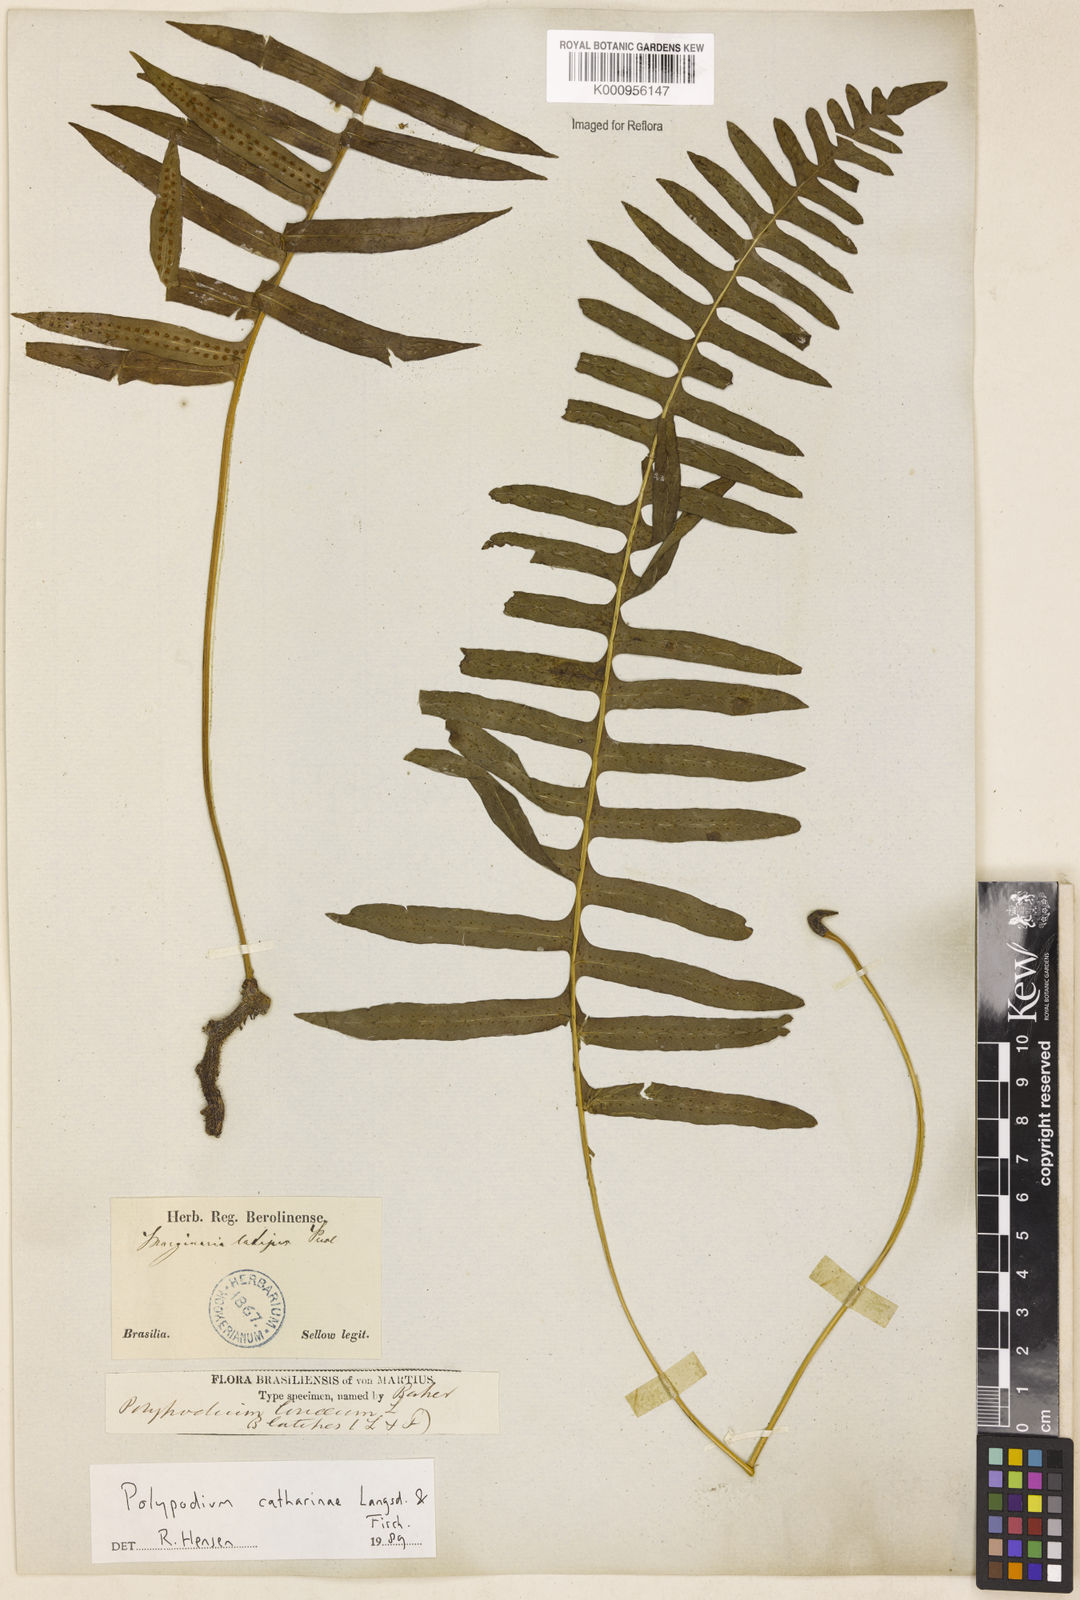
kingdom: Plantae
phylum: Tracheophyta
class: Polypodiopsida
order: Polypodiales
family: Polypodiaceae
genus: Serpocaulon
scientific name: Serpocaulon catharinae
